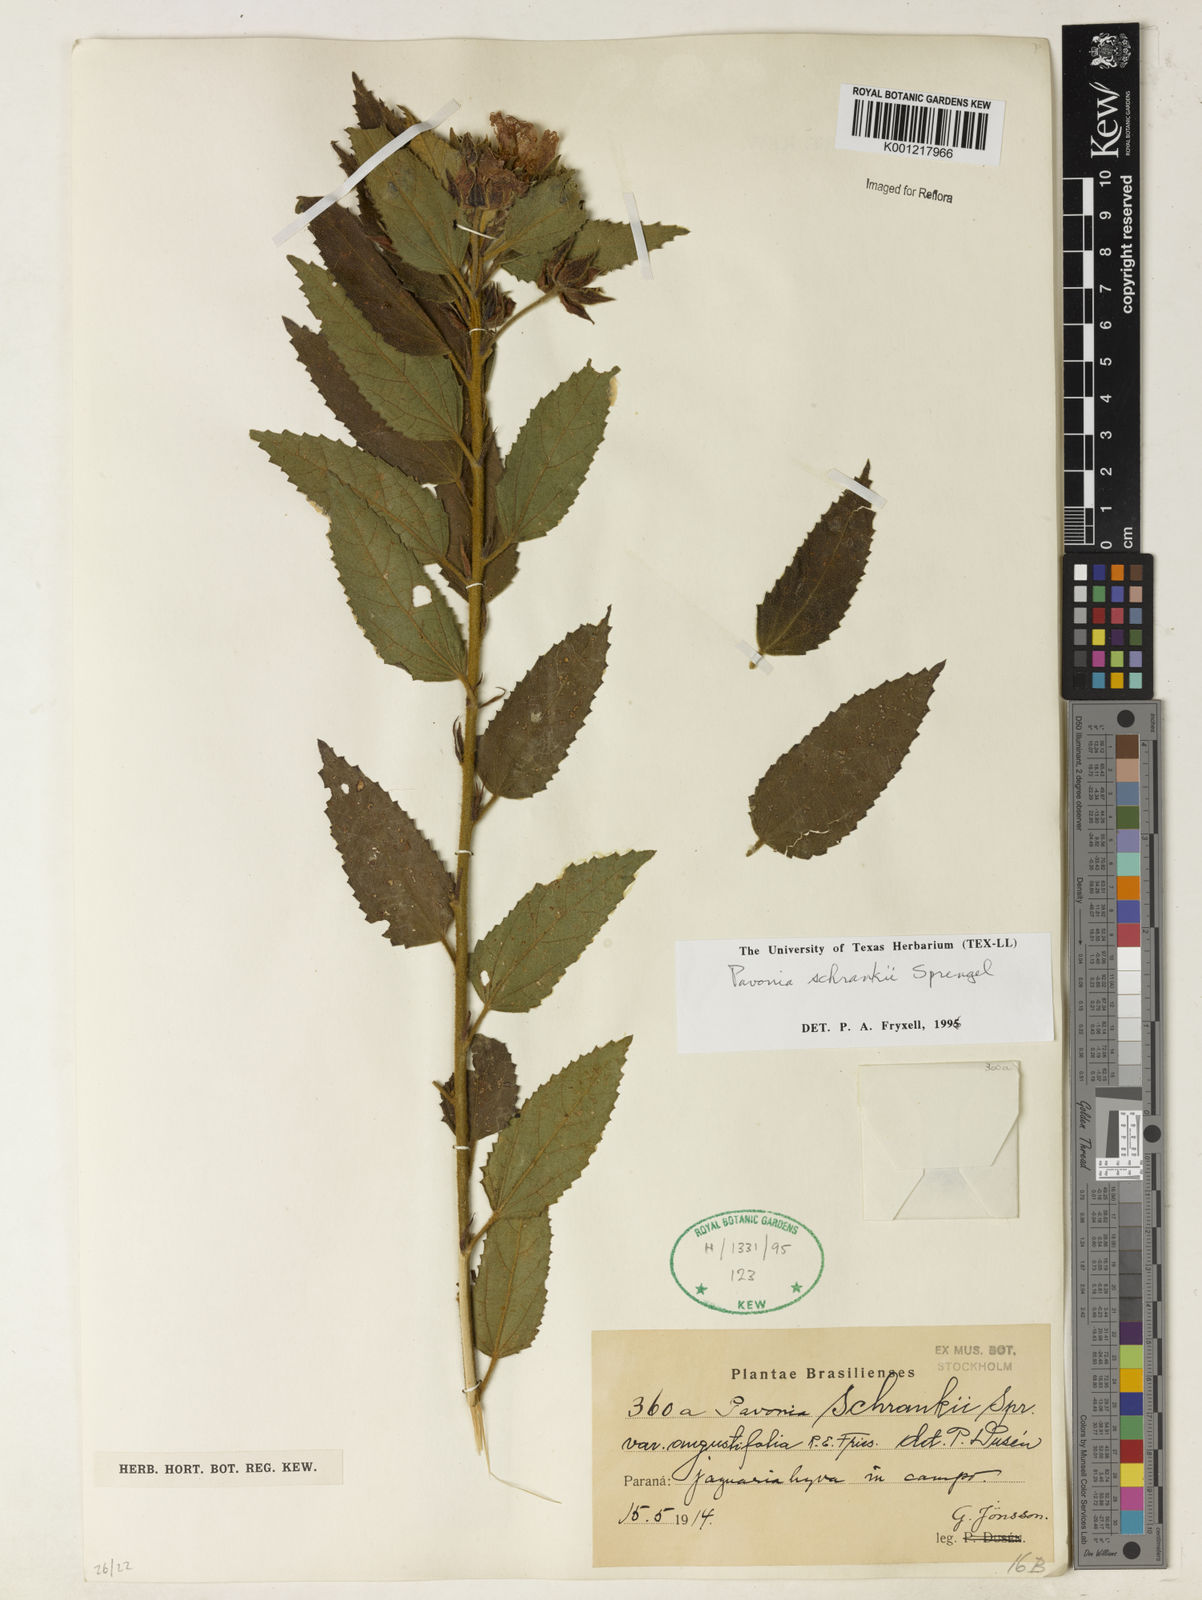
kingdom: Plantae
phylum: Tracheophyta
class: Magnoliopsida
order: Malvales
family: Malvaceae
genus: Pavonia
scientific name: Pavonia schrankii
